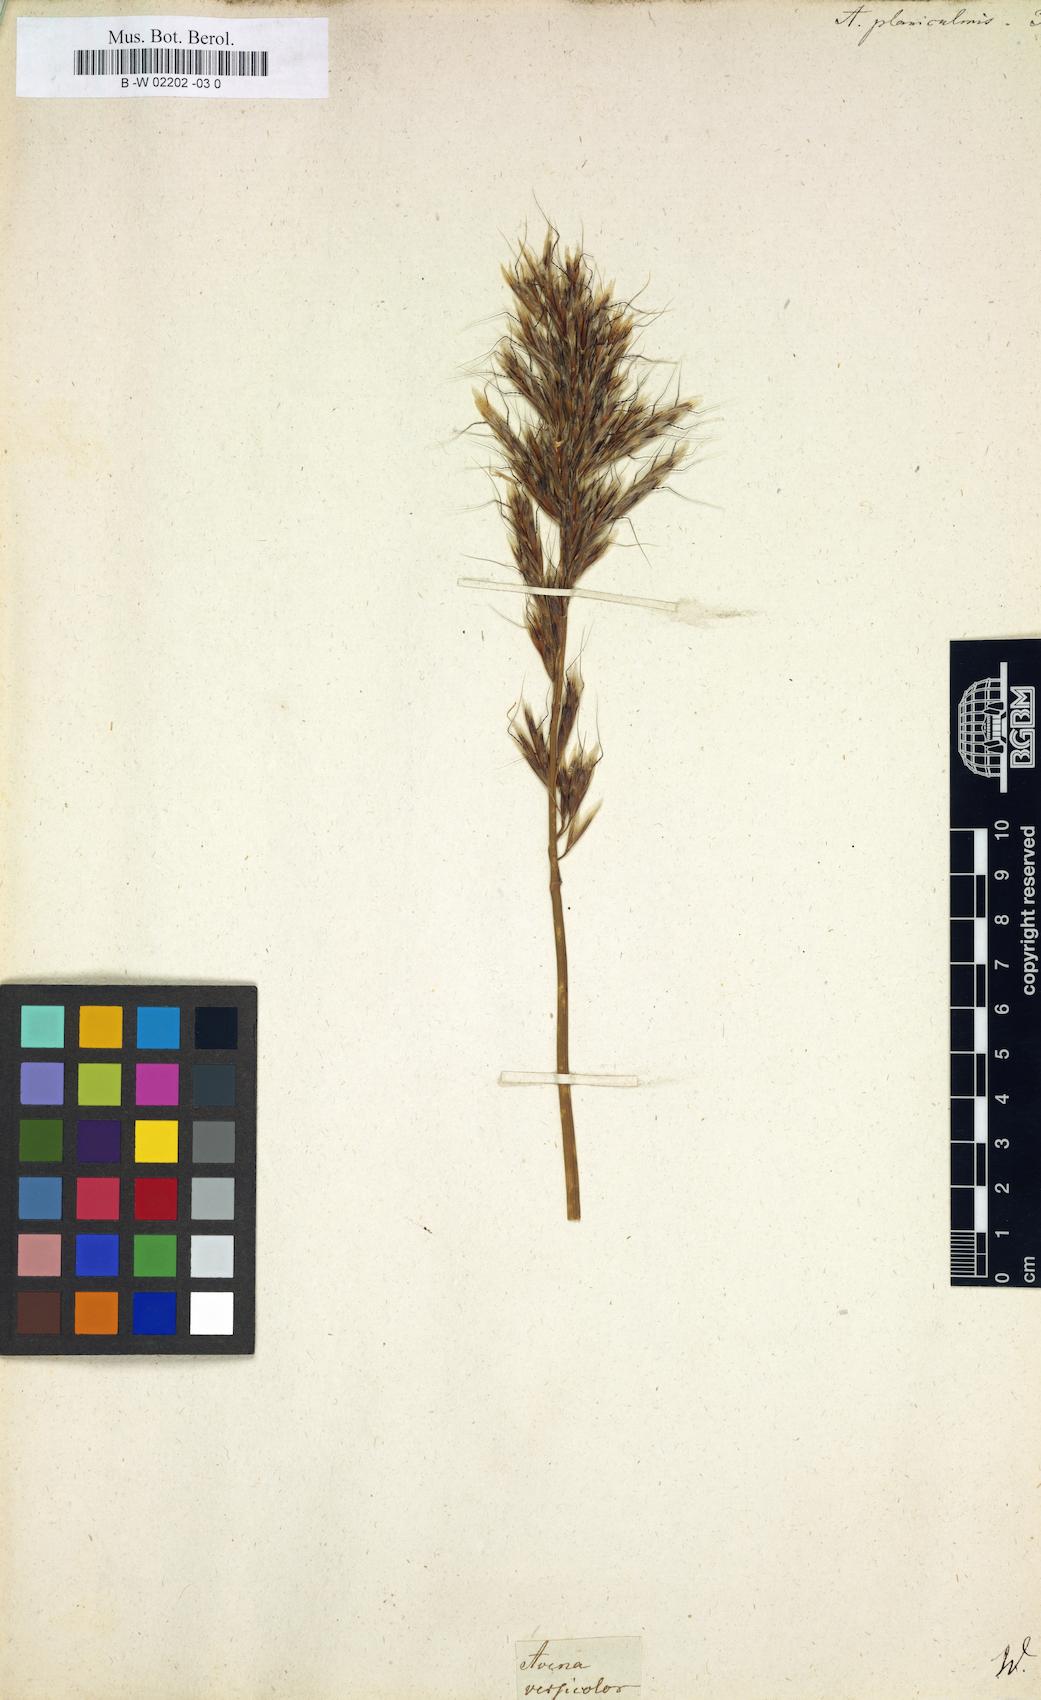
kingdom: Plantae
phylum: Tracheophyta
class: Liliopsida
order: Poales
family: Poaceae
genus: Helictochloa
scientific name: Helictochloa
